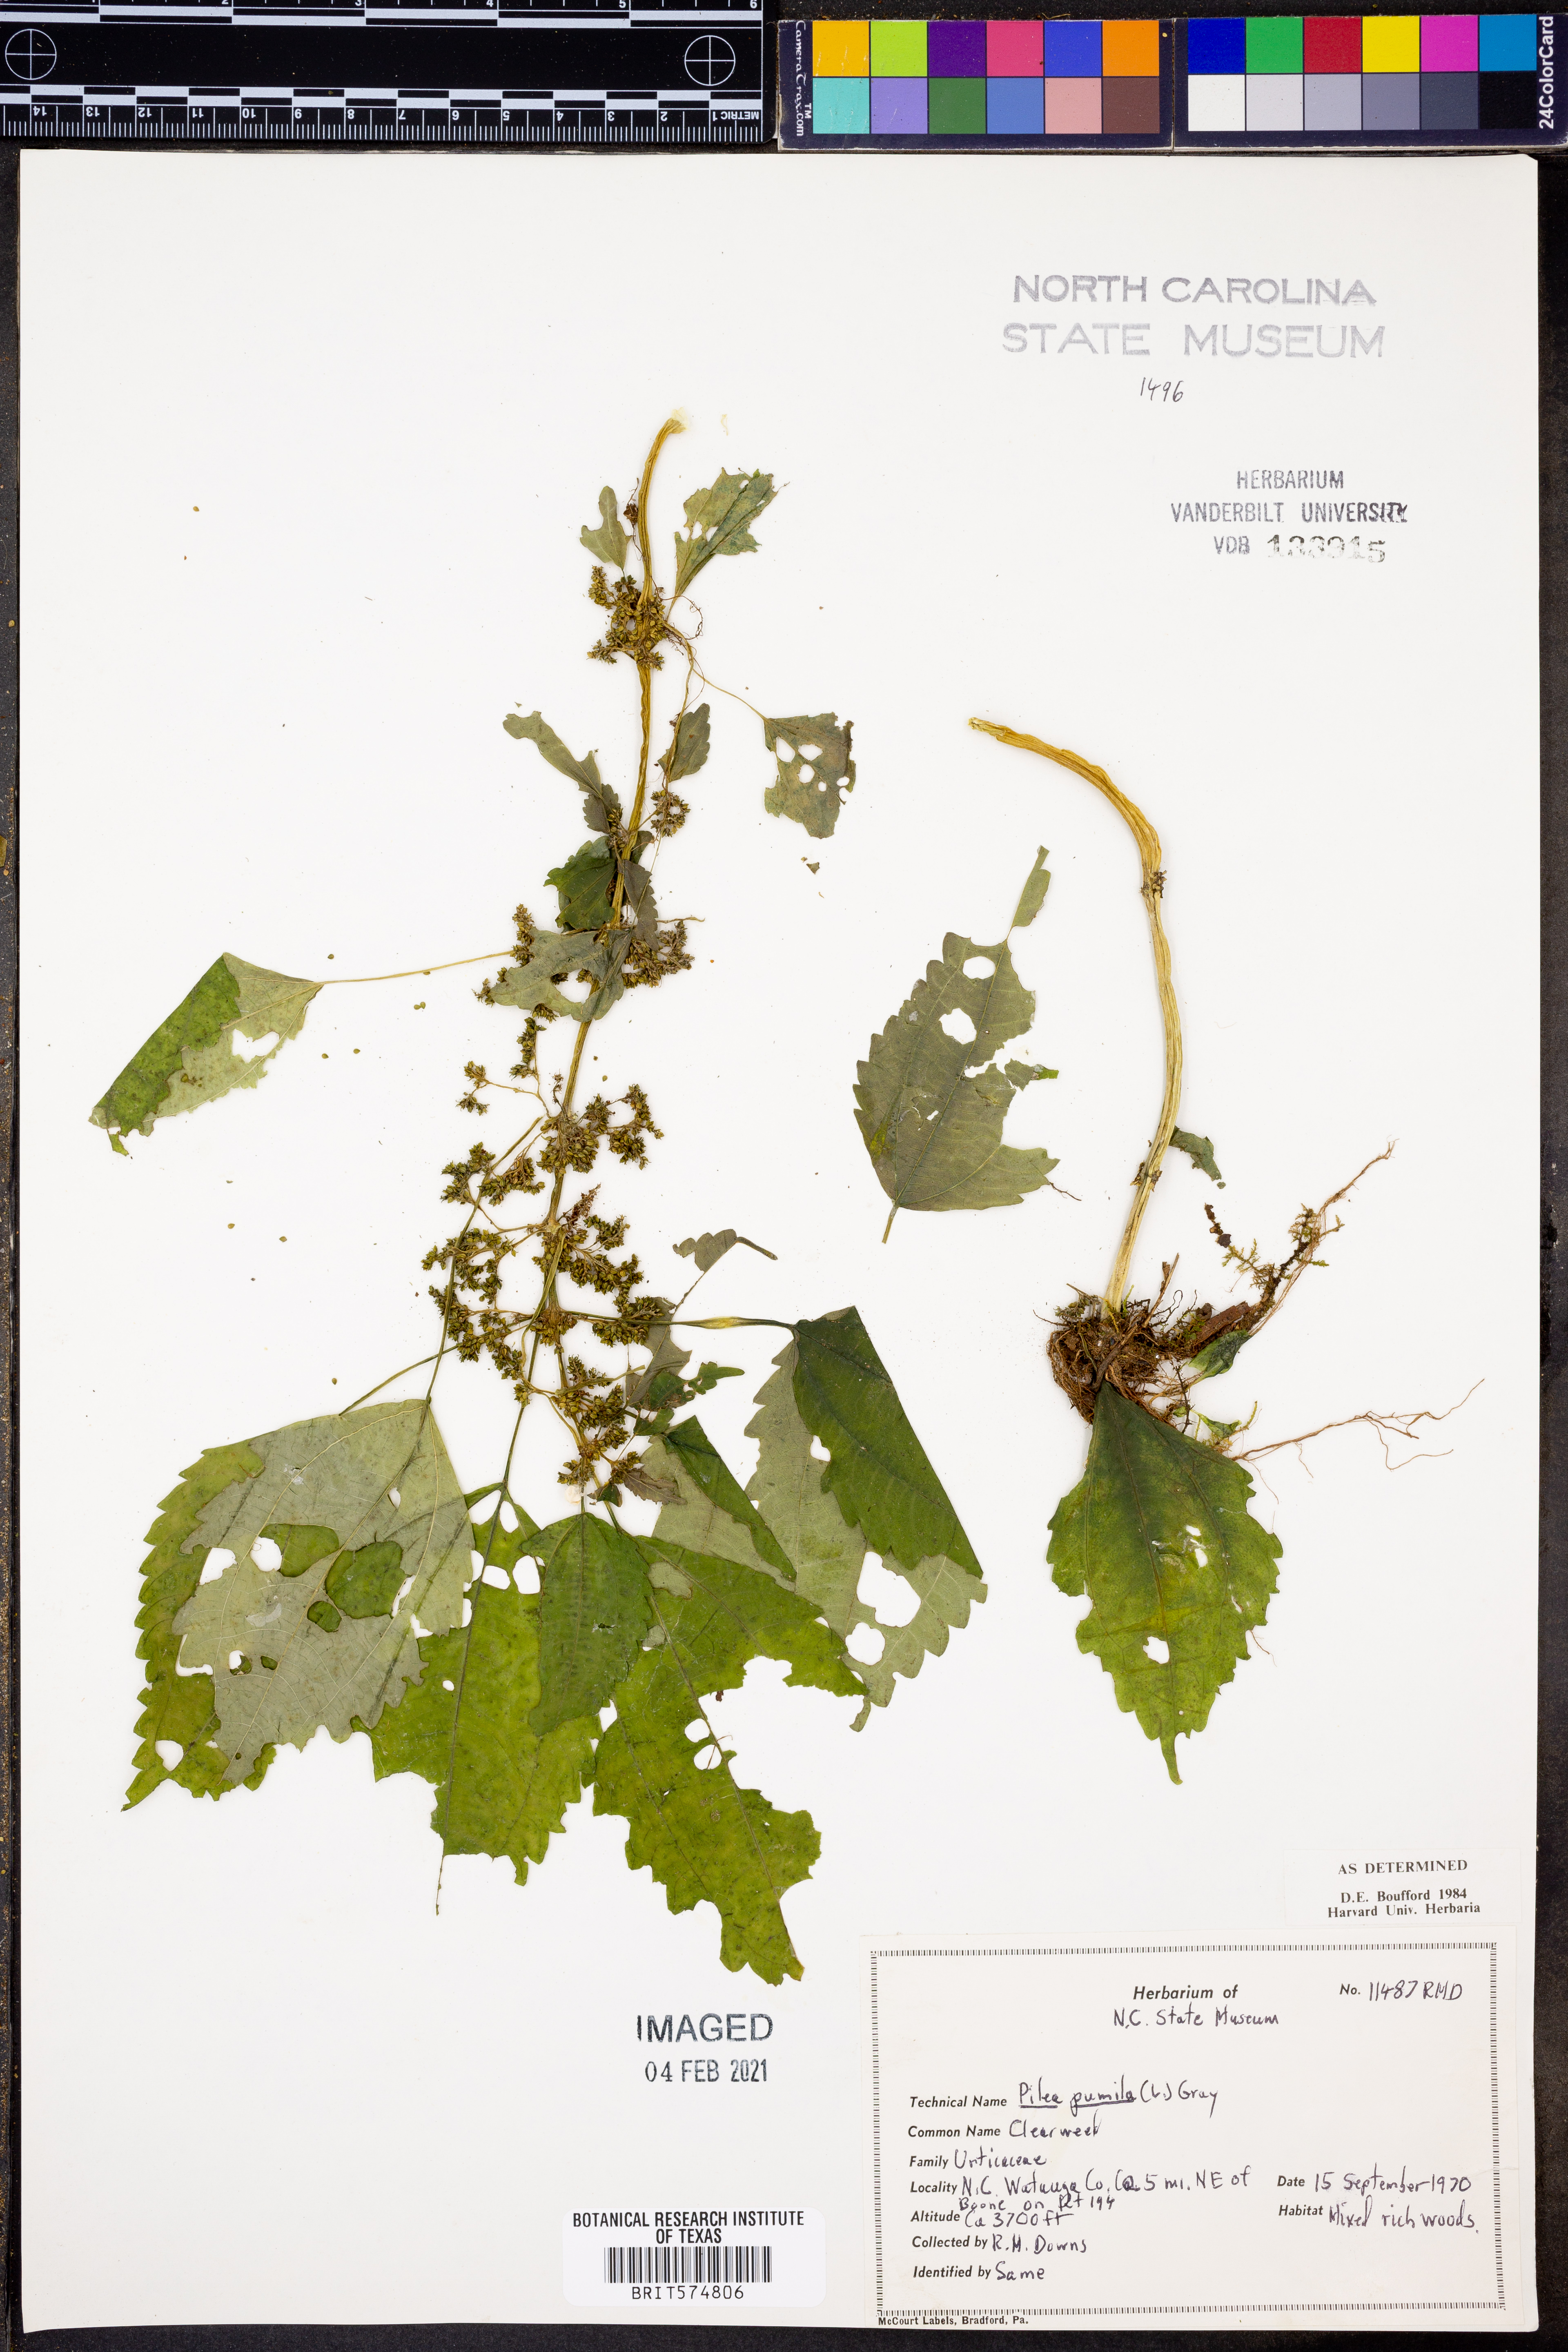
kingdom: Plantae
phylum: Tracheophyta
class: Magnoliopsida
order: Rosales
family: Urticaceae
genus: Pilea
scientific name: Pilea pumila
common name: Clearweed
